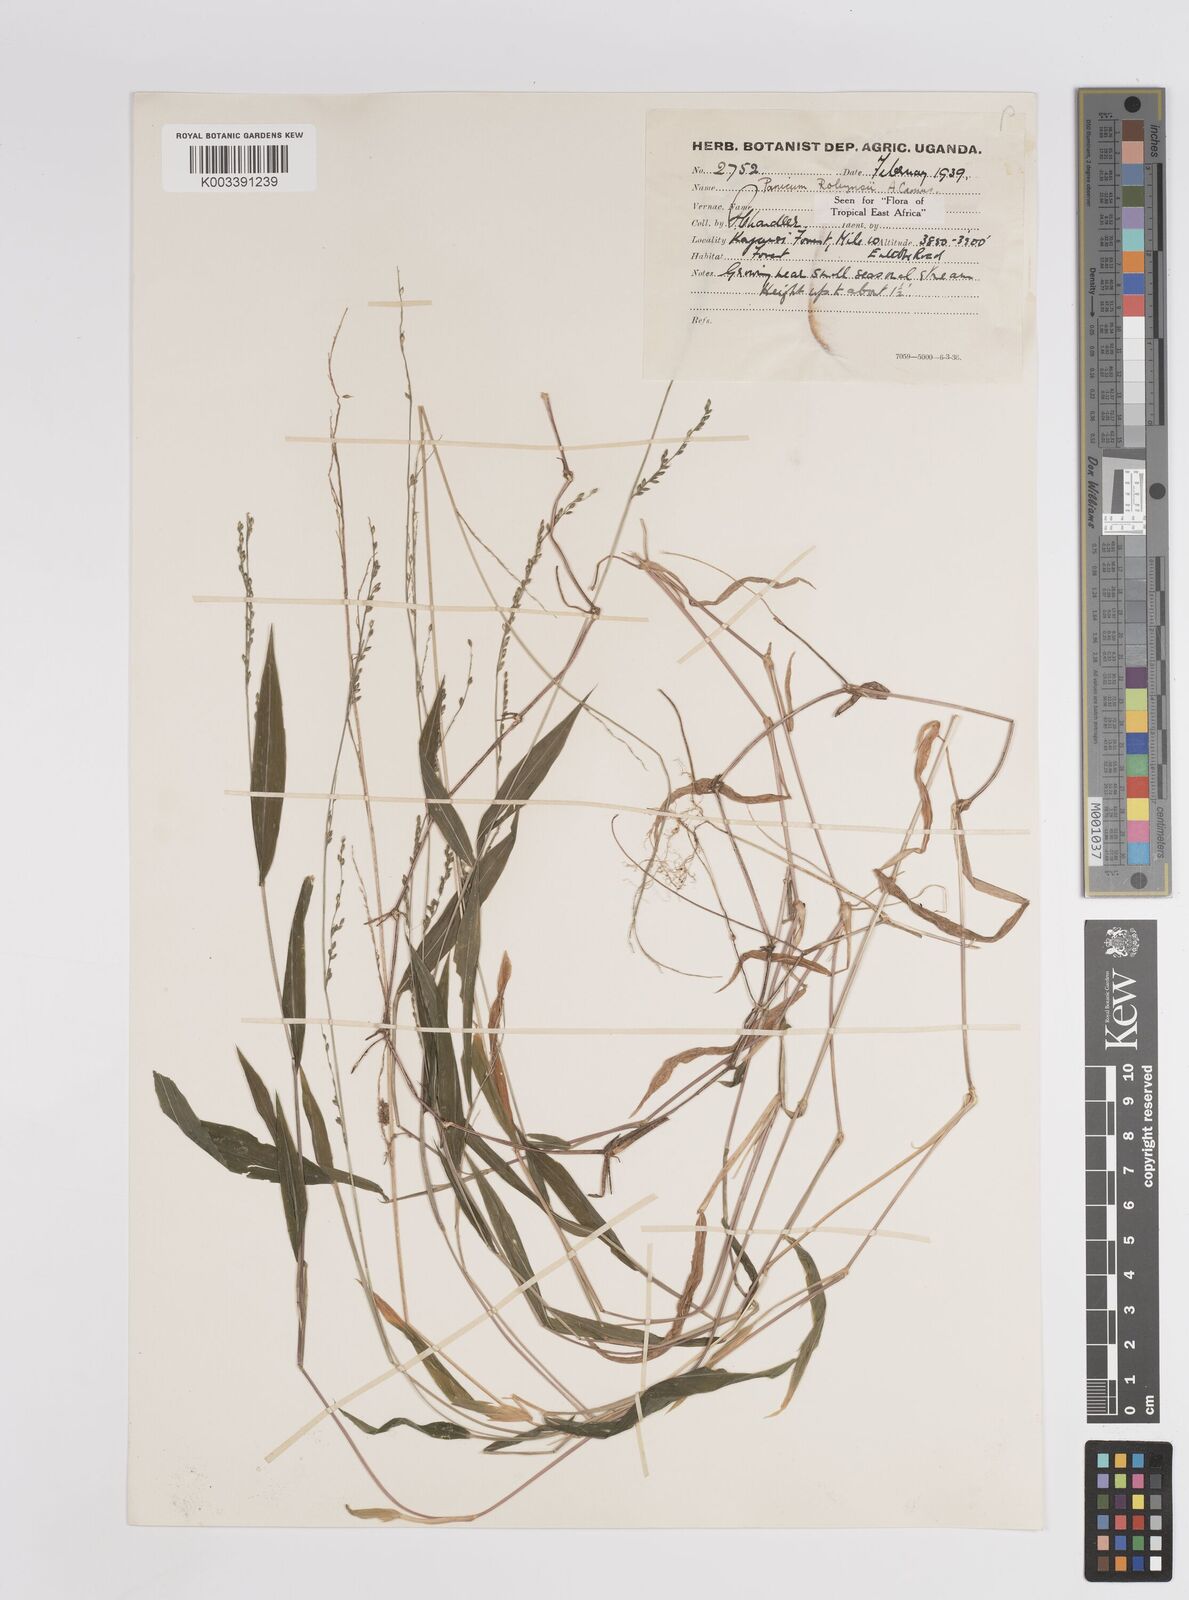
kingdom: Plantae
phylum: Tracheophyta
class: Liliopsida
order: Poales
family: Poaceae
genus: Panicum
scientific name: Panicum robynsii
